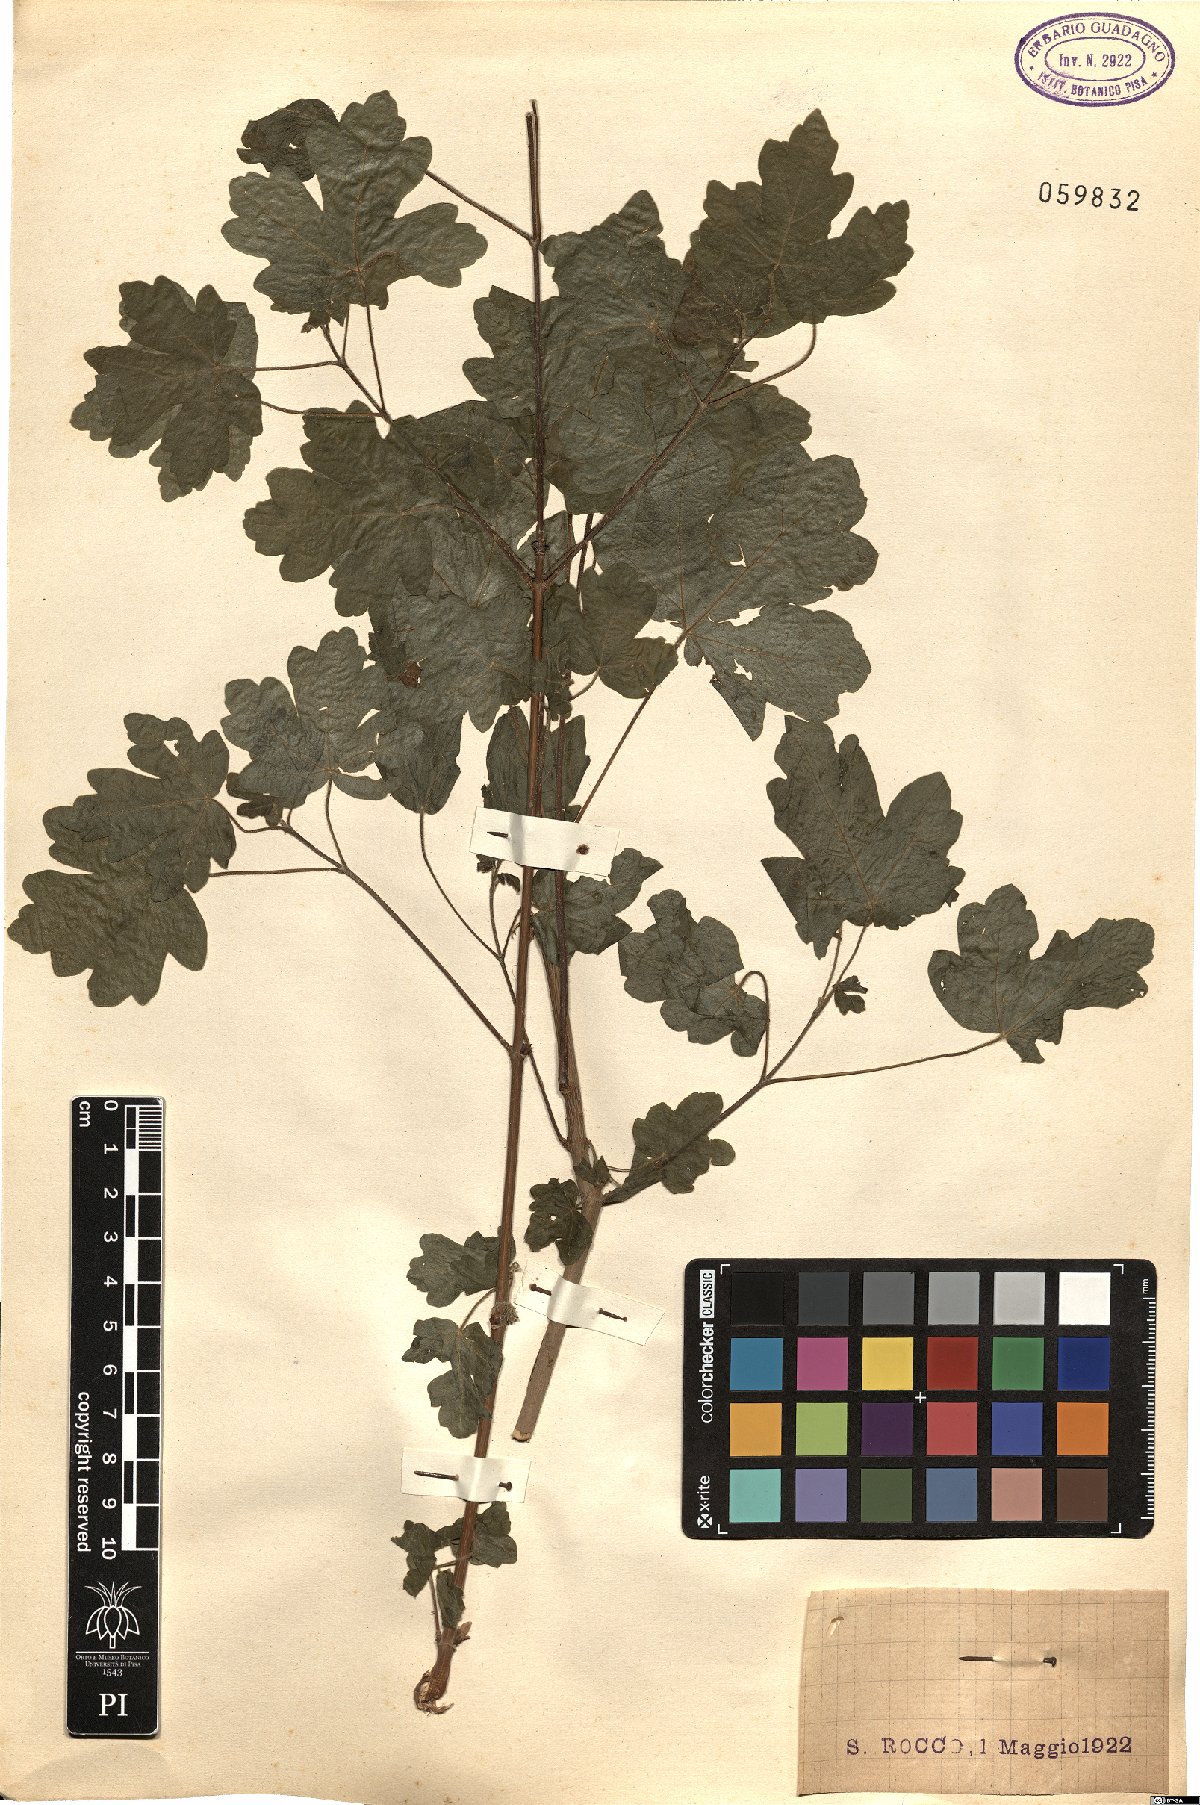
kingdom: Plantae
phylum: Tracheophyta
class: Magnoliopsida
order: Sapindales
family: Sapindaceae
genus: Acer
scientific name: Acer campestre
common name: Field maple
